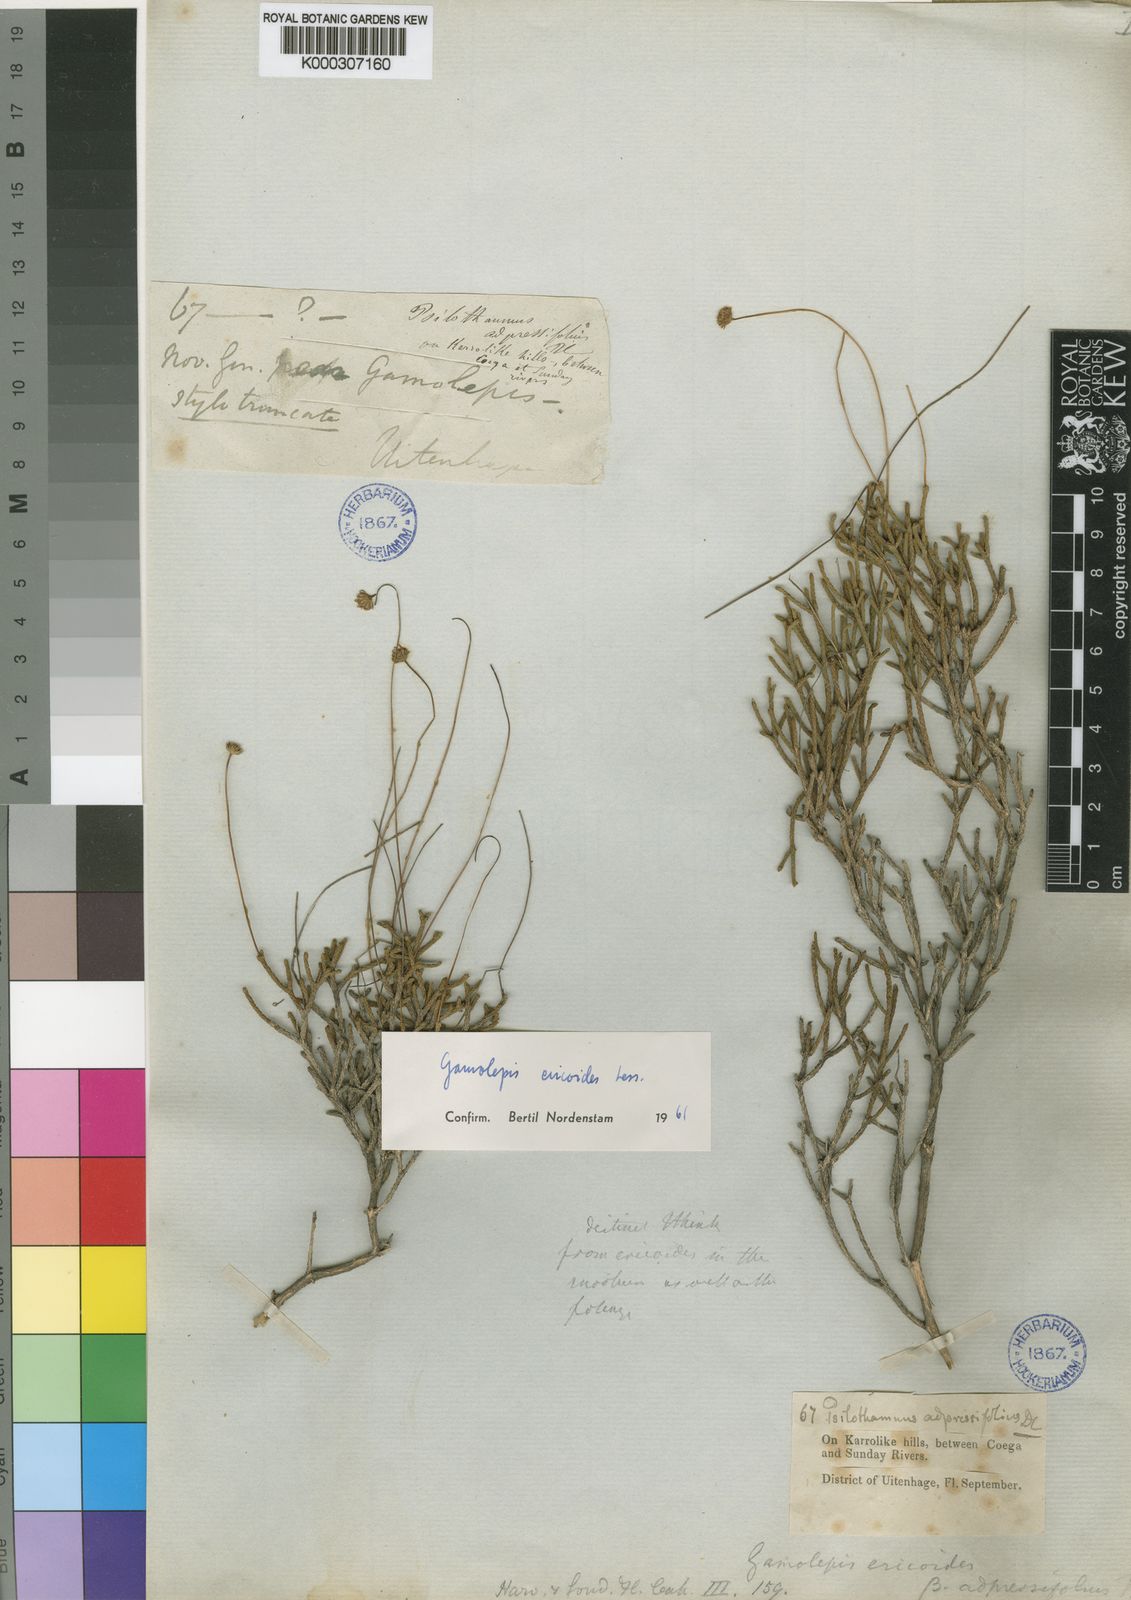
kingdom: Plantae
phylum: Tracheophyta
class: Magnoliopsida
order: Asterales
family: Asteraceae
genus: Euryops
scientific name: Euryops ericoides
